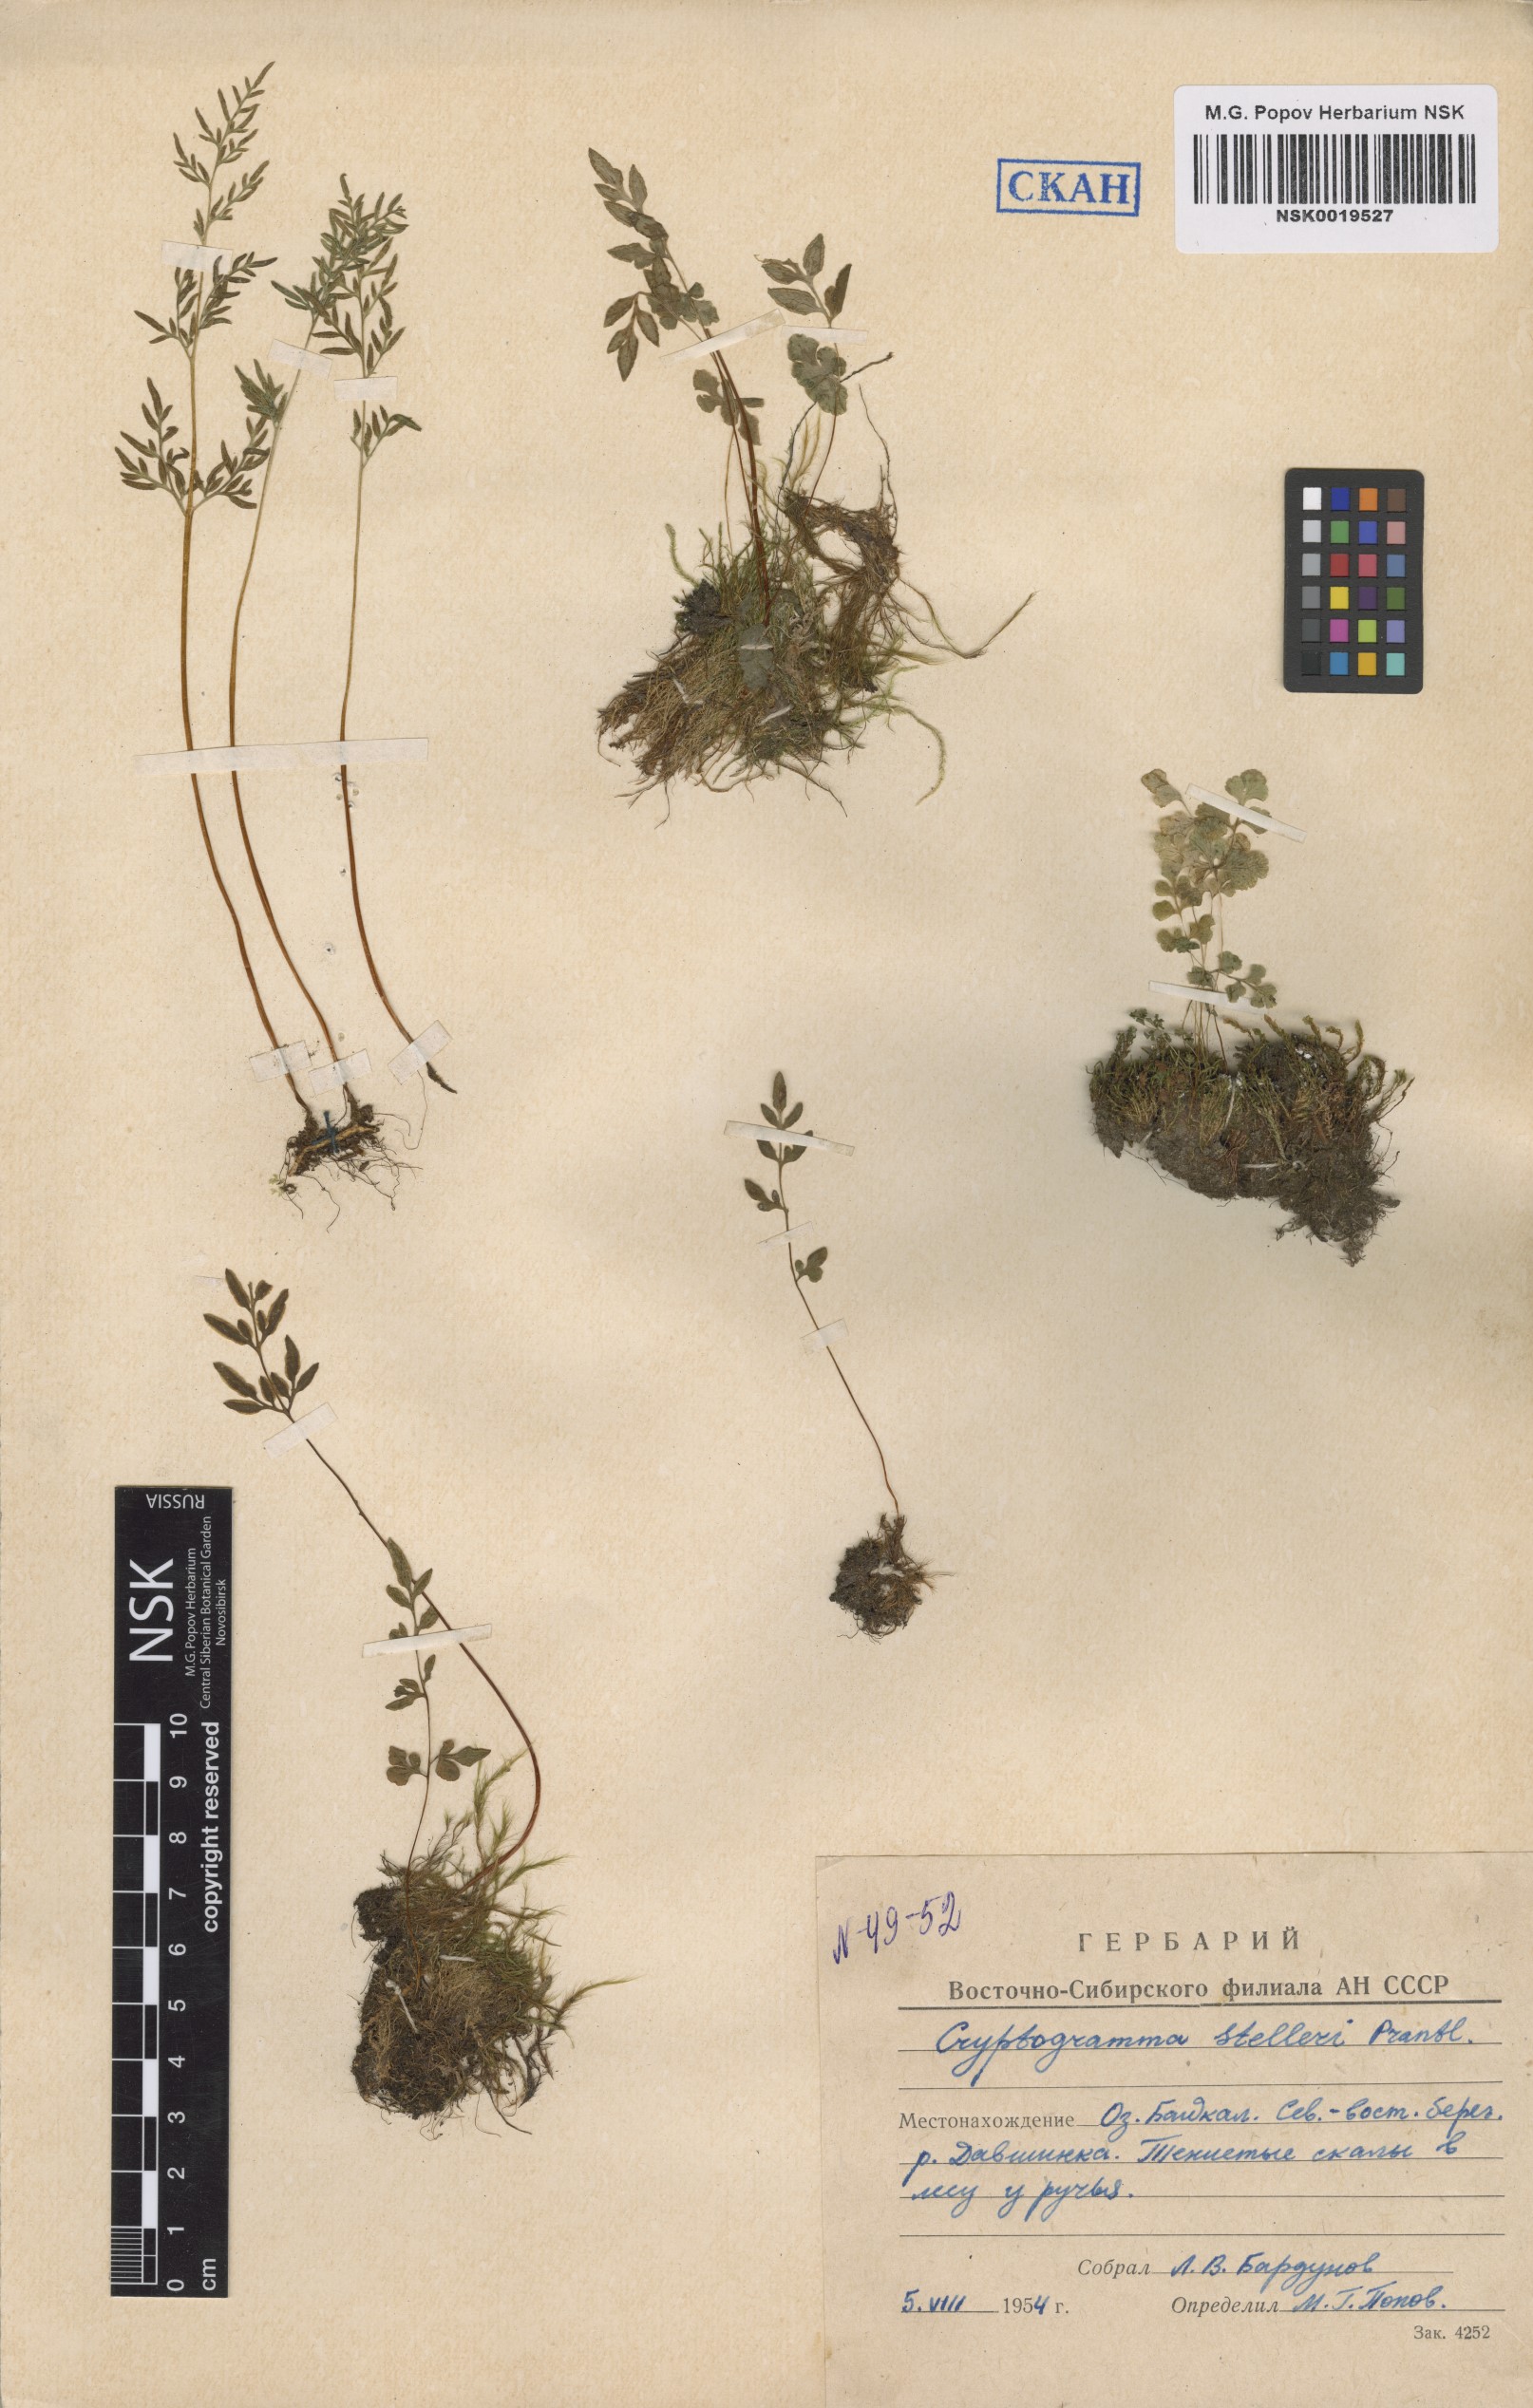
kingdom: Plantae
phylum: Tracheophyta
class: Polypodiopsida
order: Polypodiales
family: Pteridaceae
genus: Cryptogramma
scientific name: Cryptogramma stelleri
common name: Cliff-brake
